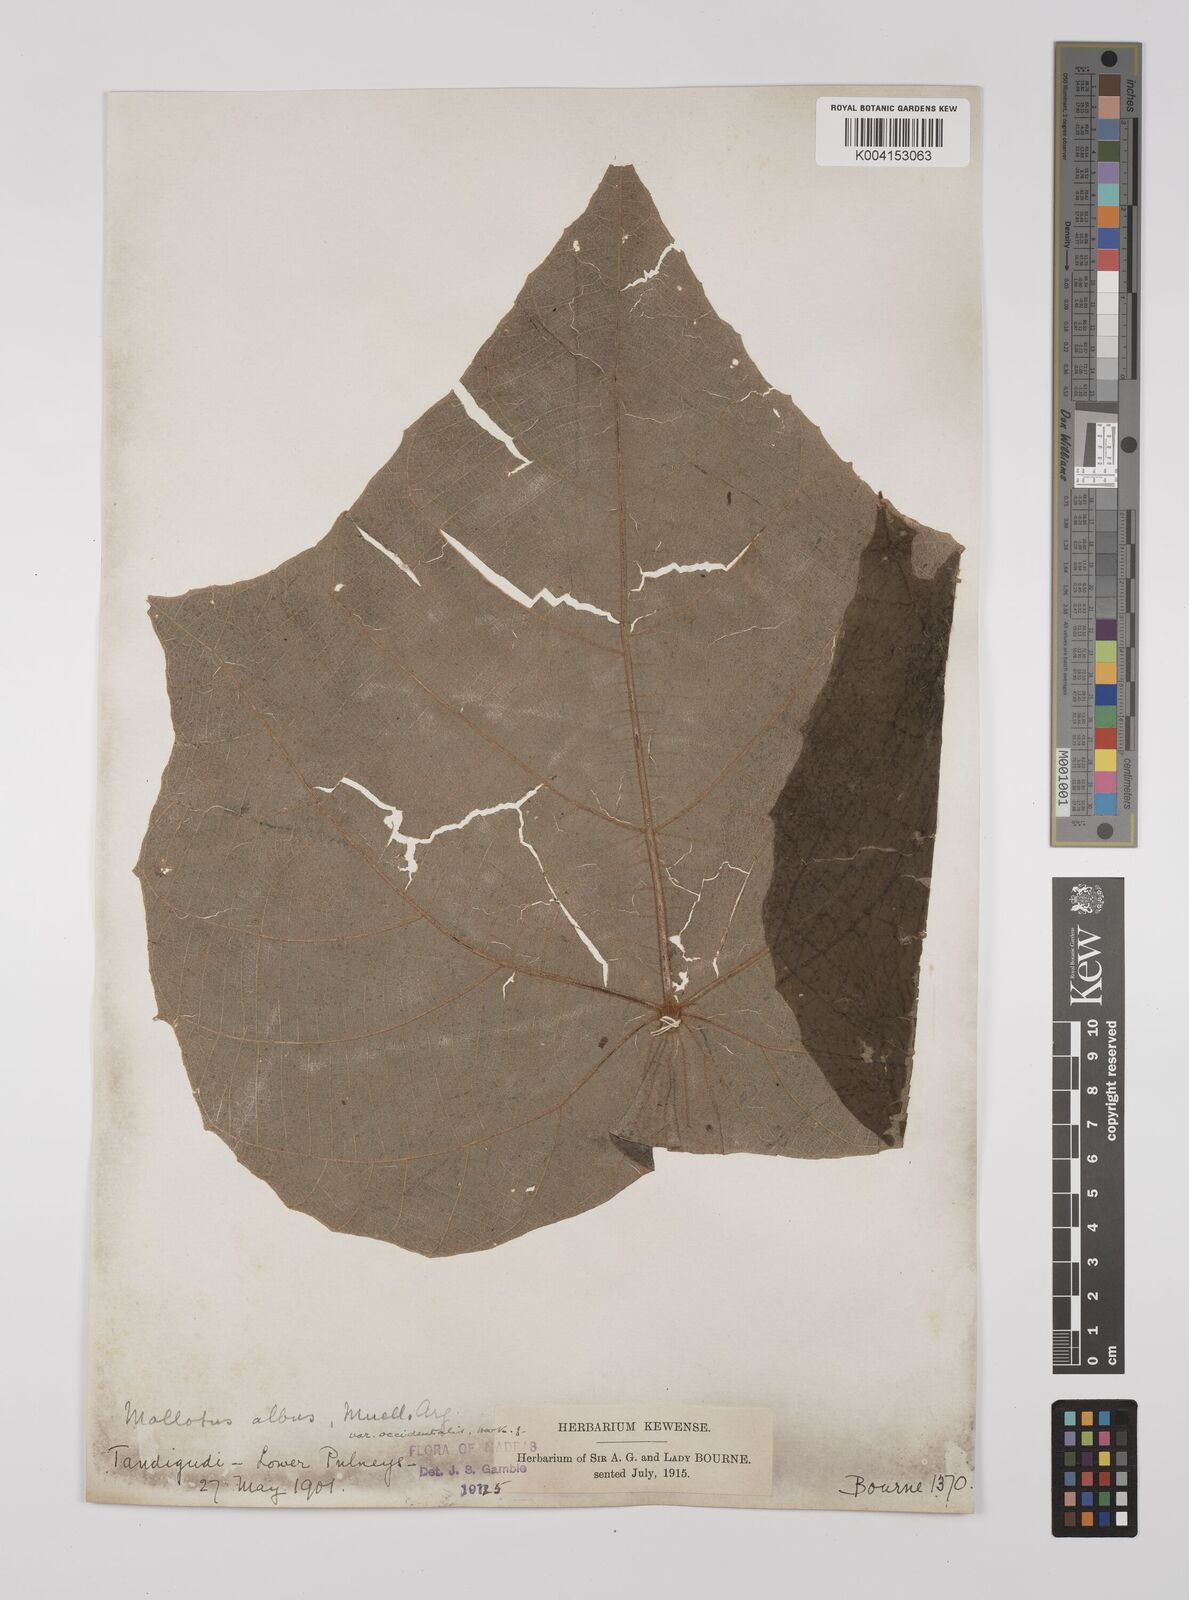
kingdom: Plantae
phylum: Tracheophyta
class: Magnoliopsida
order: Malpighiales
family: Euphorbiaceae
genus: Mallotus
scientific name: Mallotus tetracoccus
